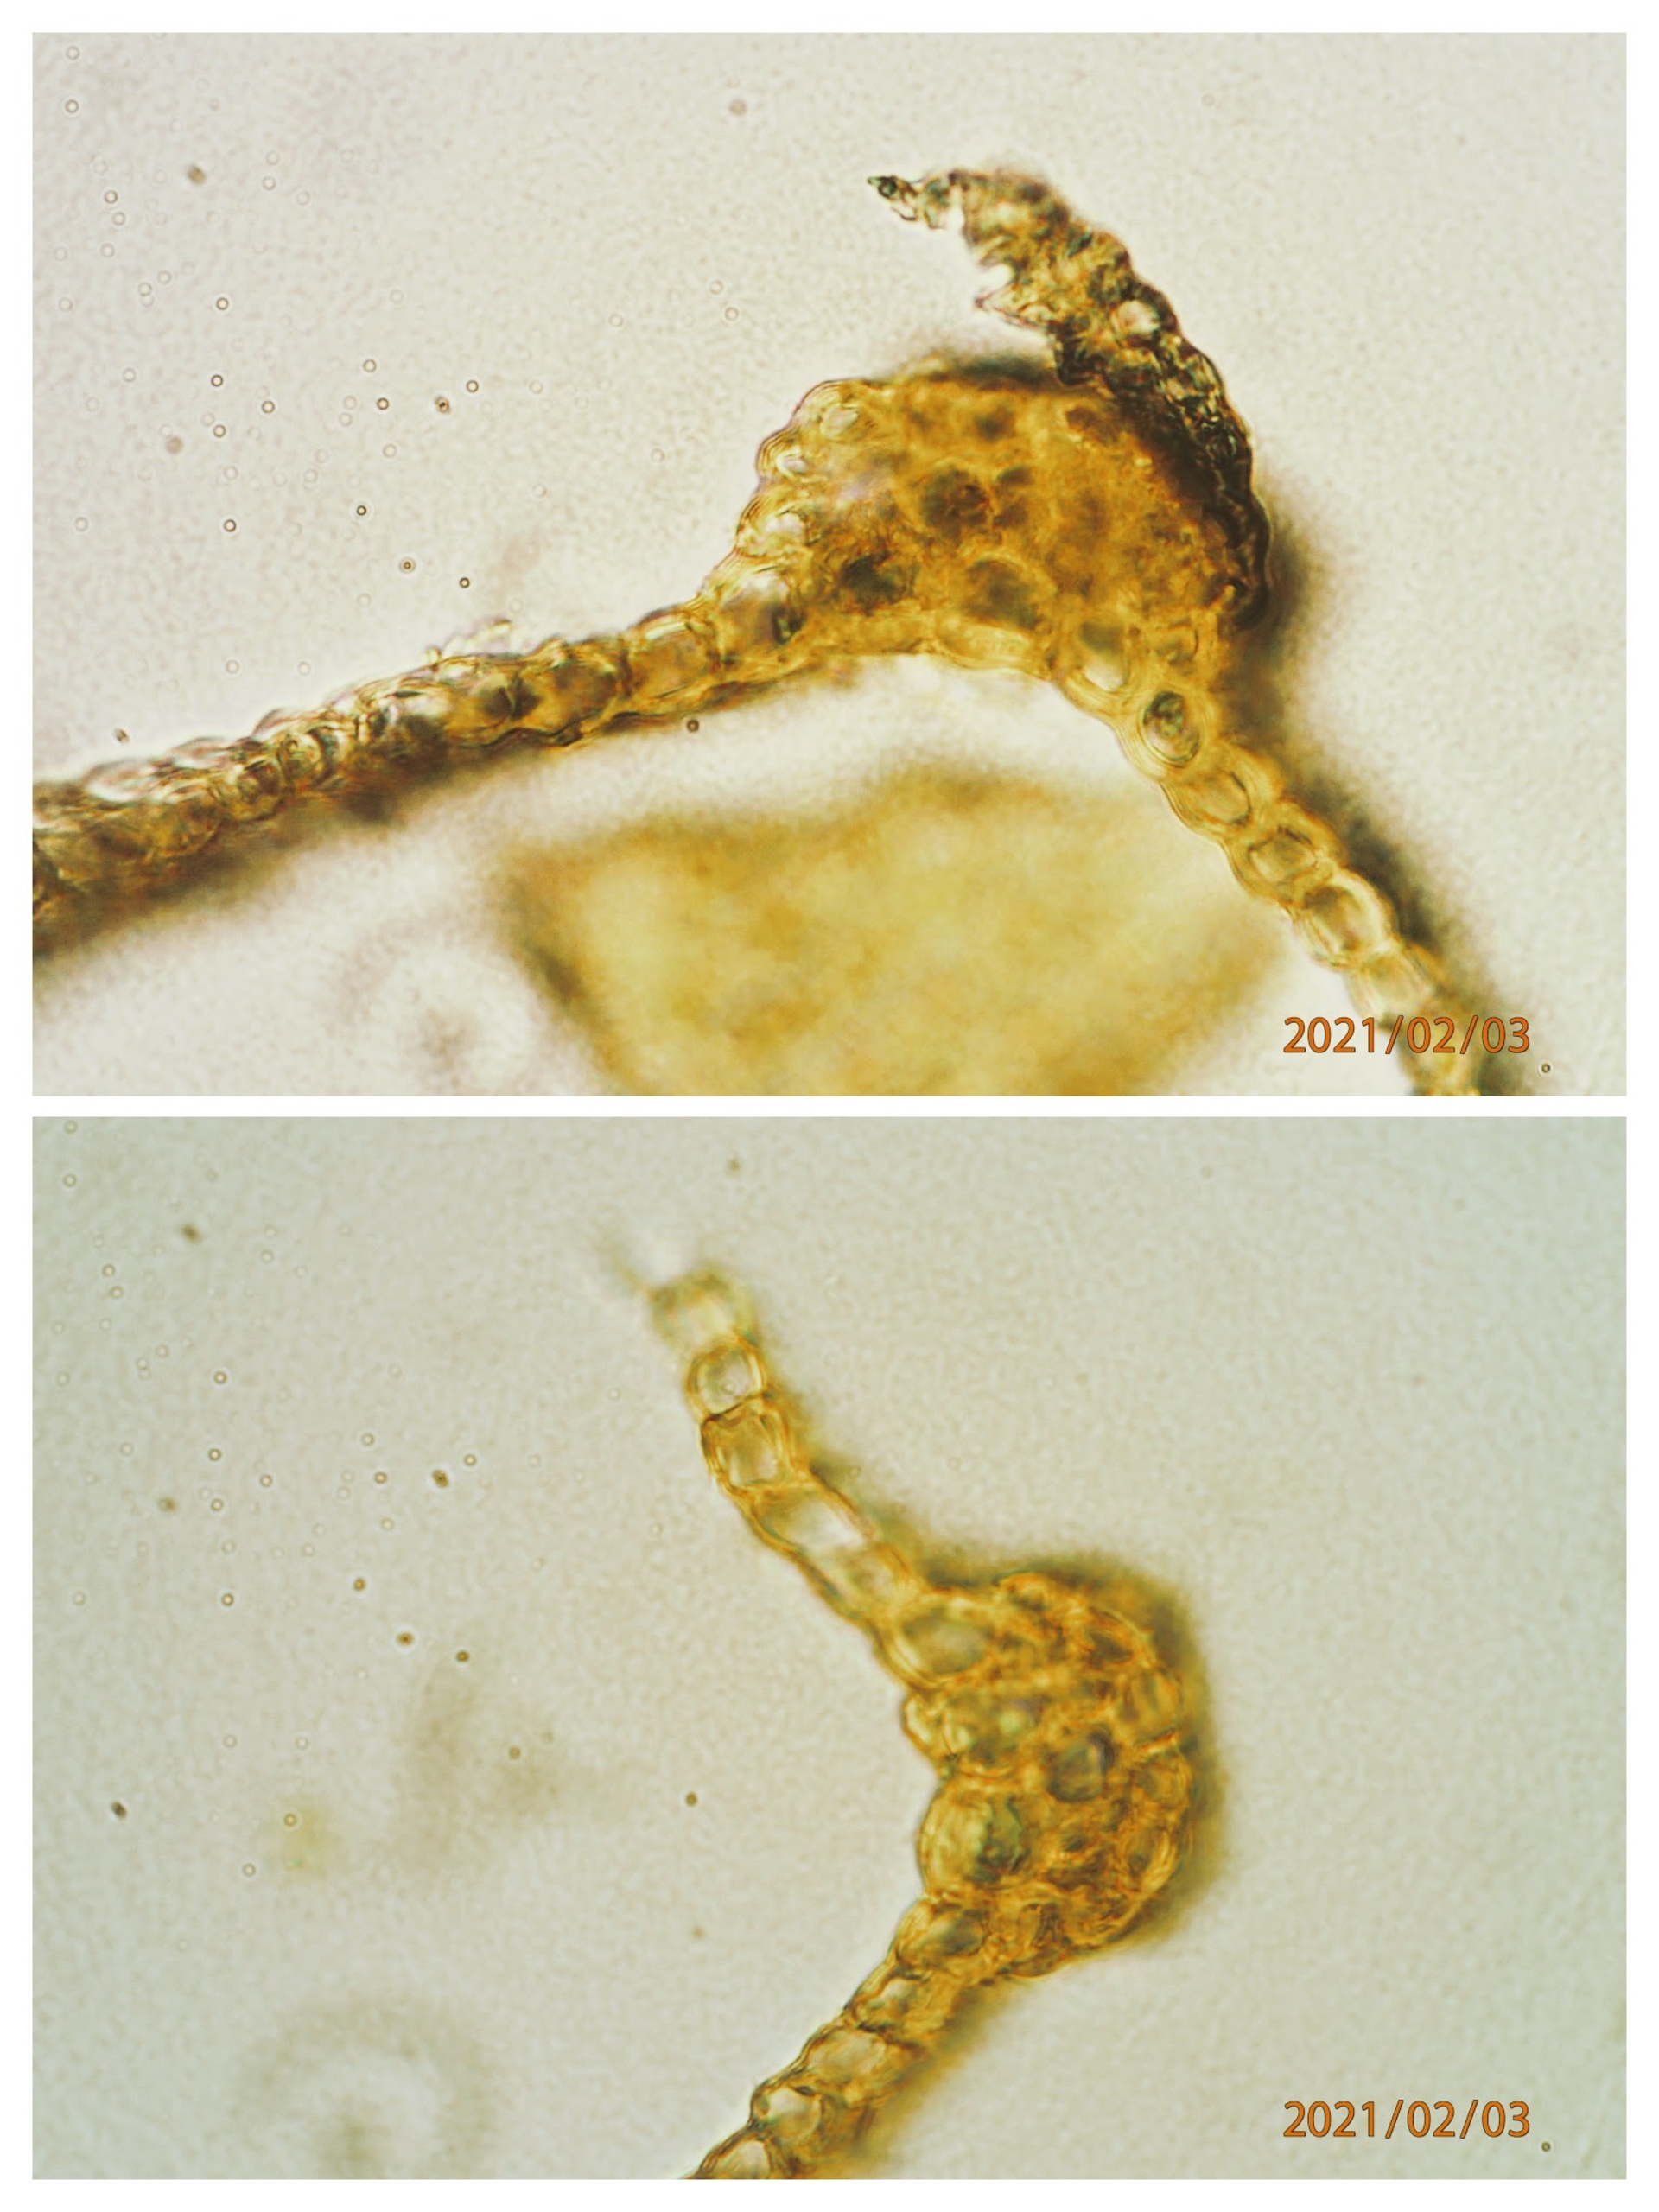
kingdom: Plantae
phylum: Bryophyta
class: Bryopsida
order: Grimmiales
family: Grimmiaceae
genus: Grimmia
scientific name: Grimmia
